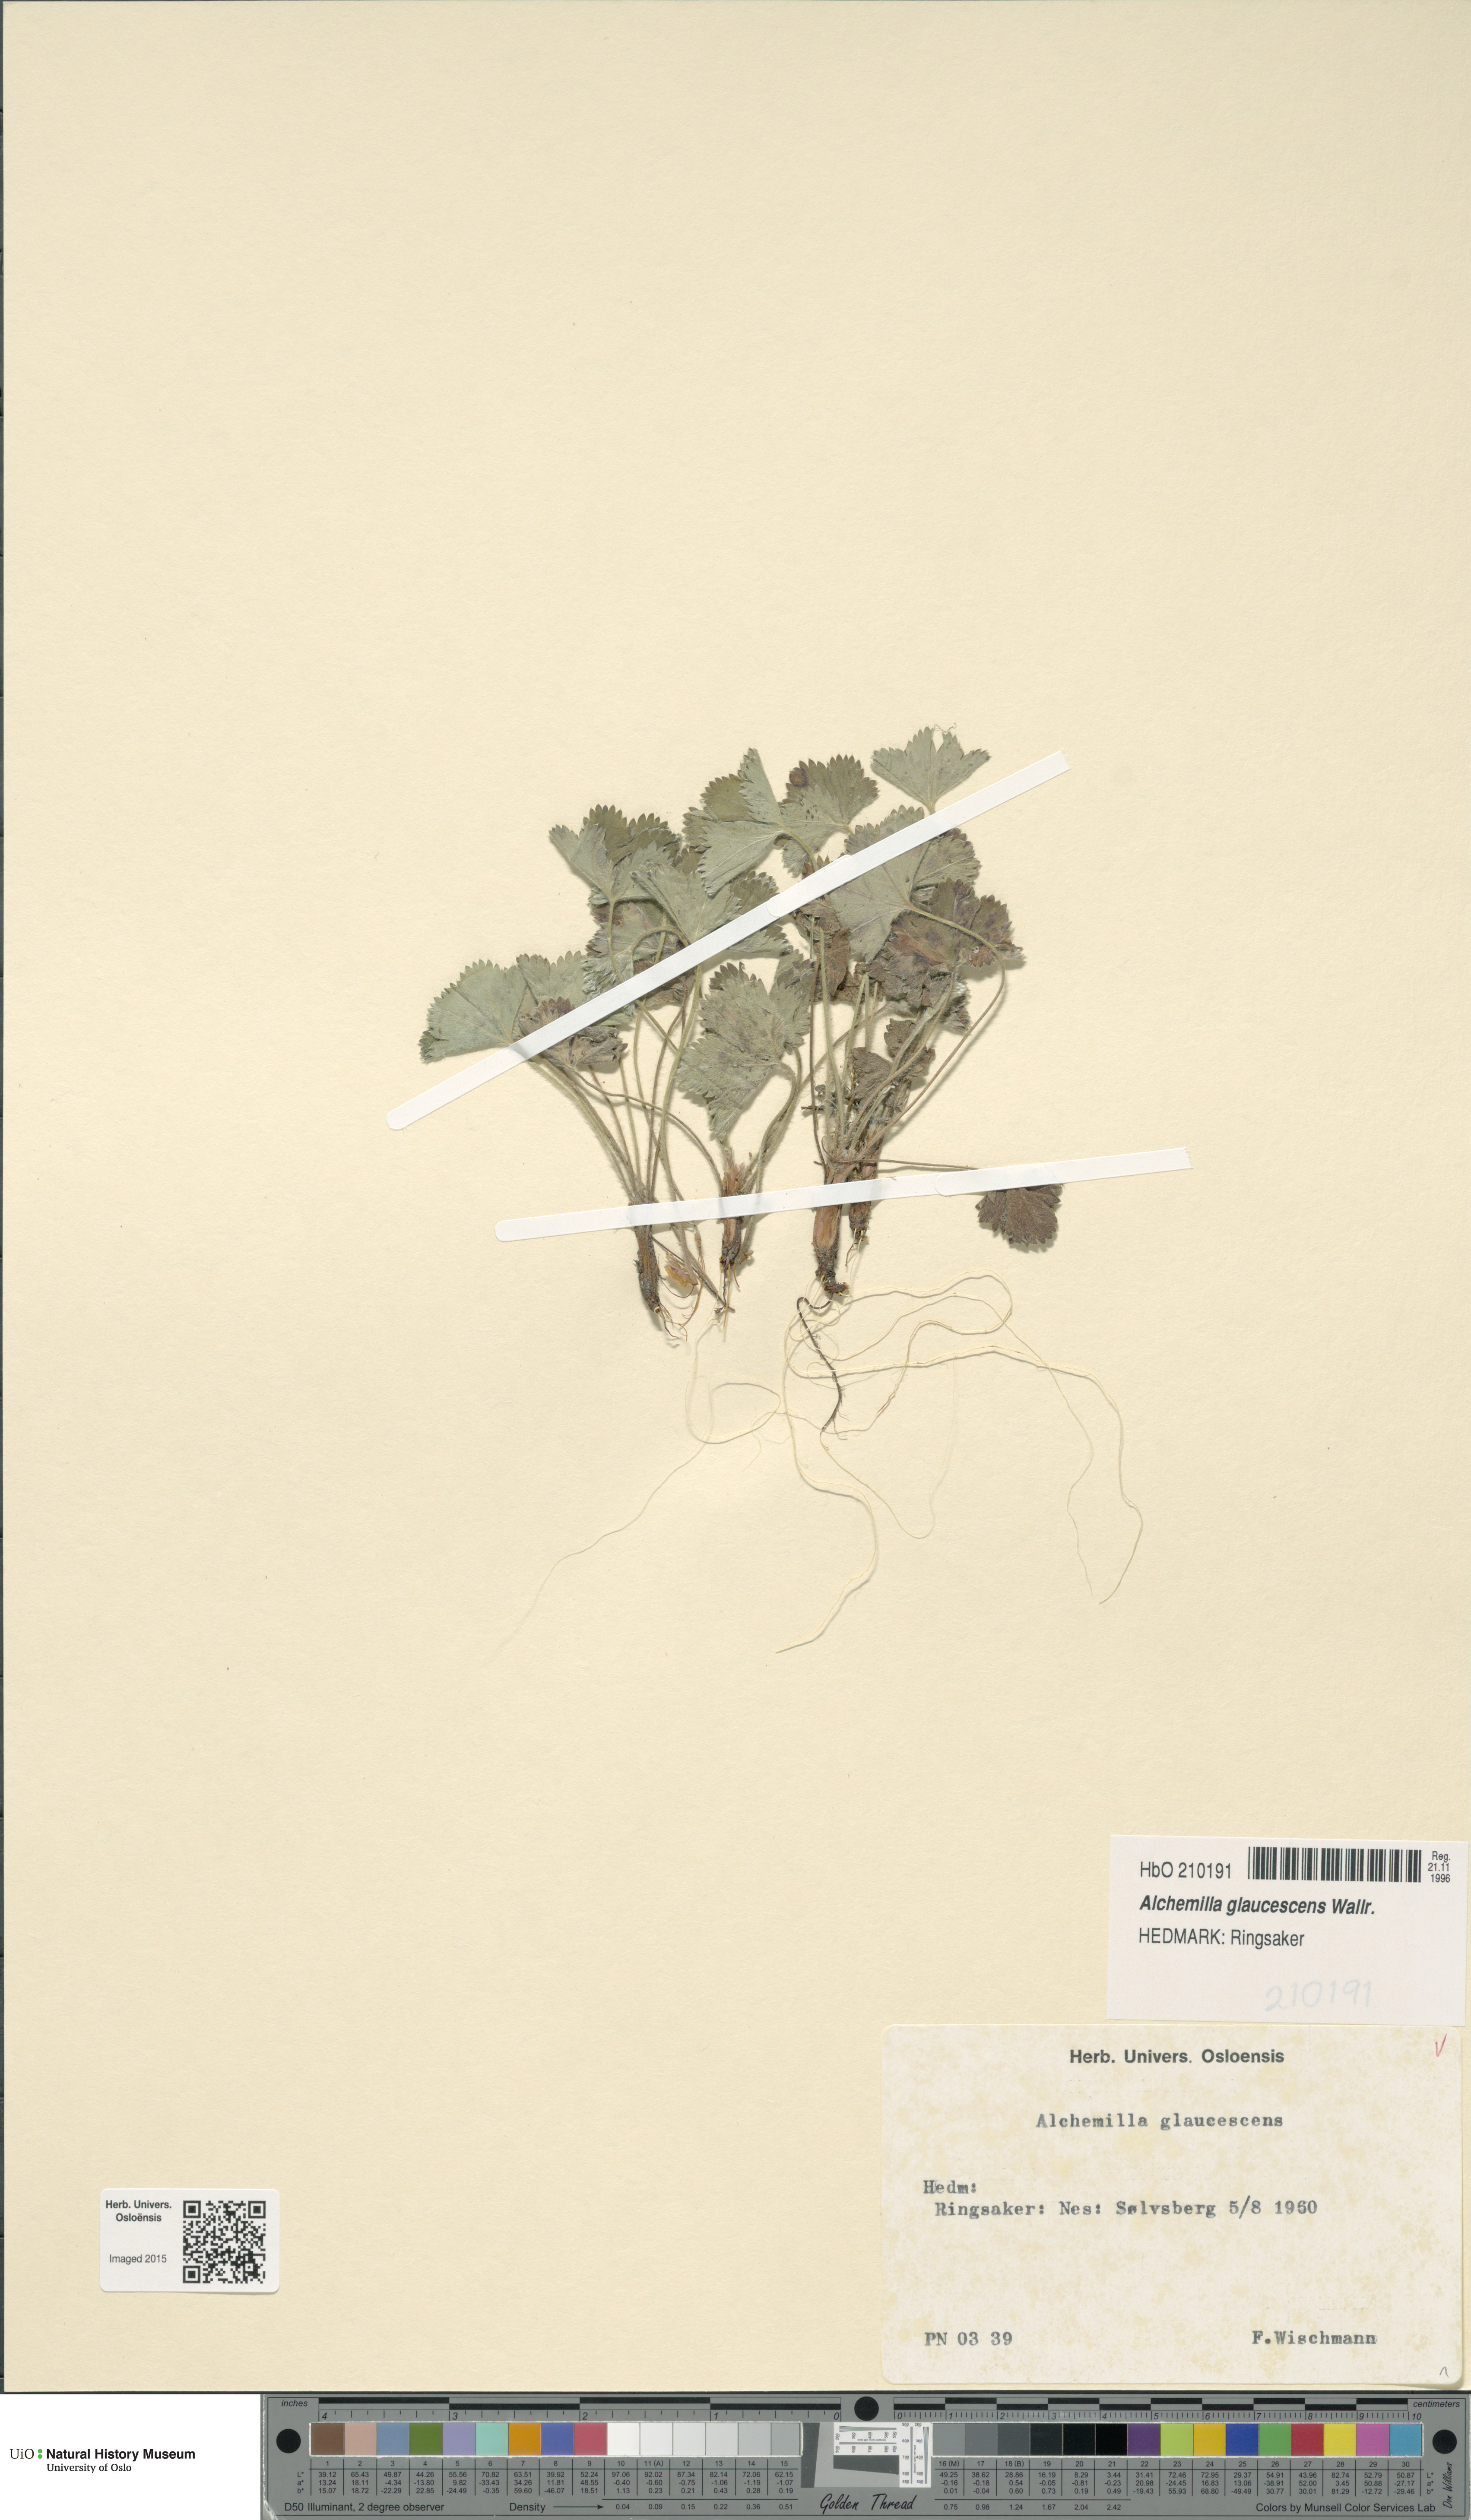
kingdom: Plantae
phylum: Tracheophyta
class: Magnoliopsida
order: Rosales
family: Rosaceae
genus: Alchemilla
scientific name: Alchemilla glaucescens
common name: Silky lady's mantle
